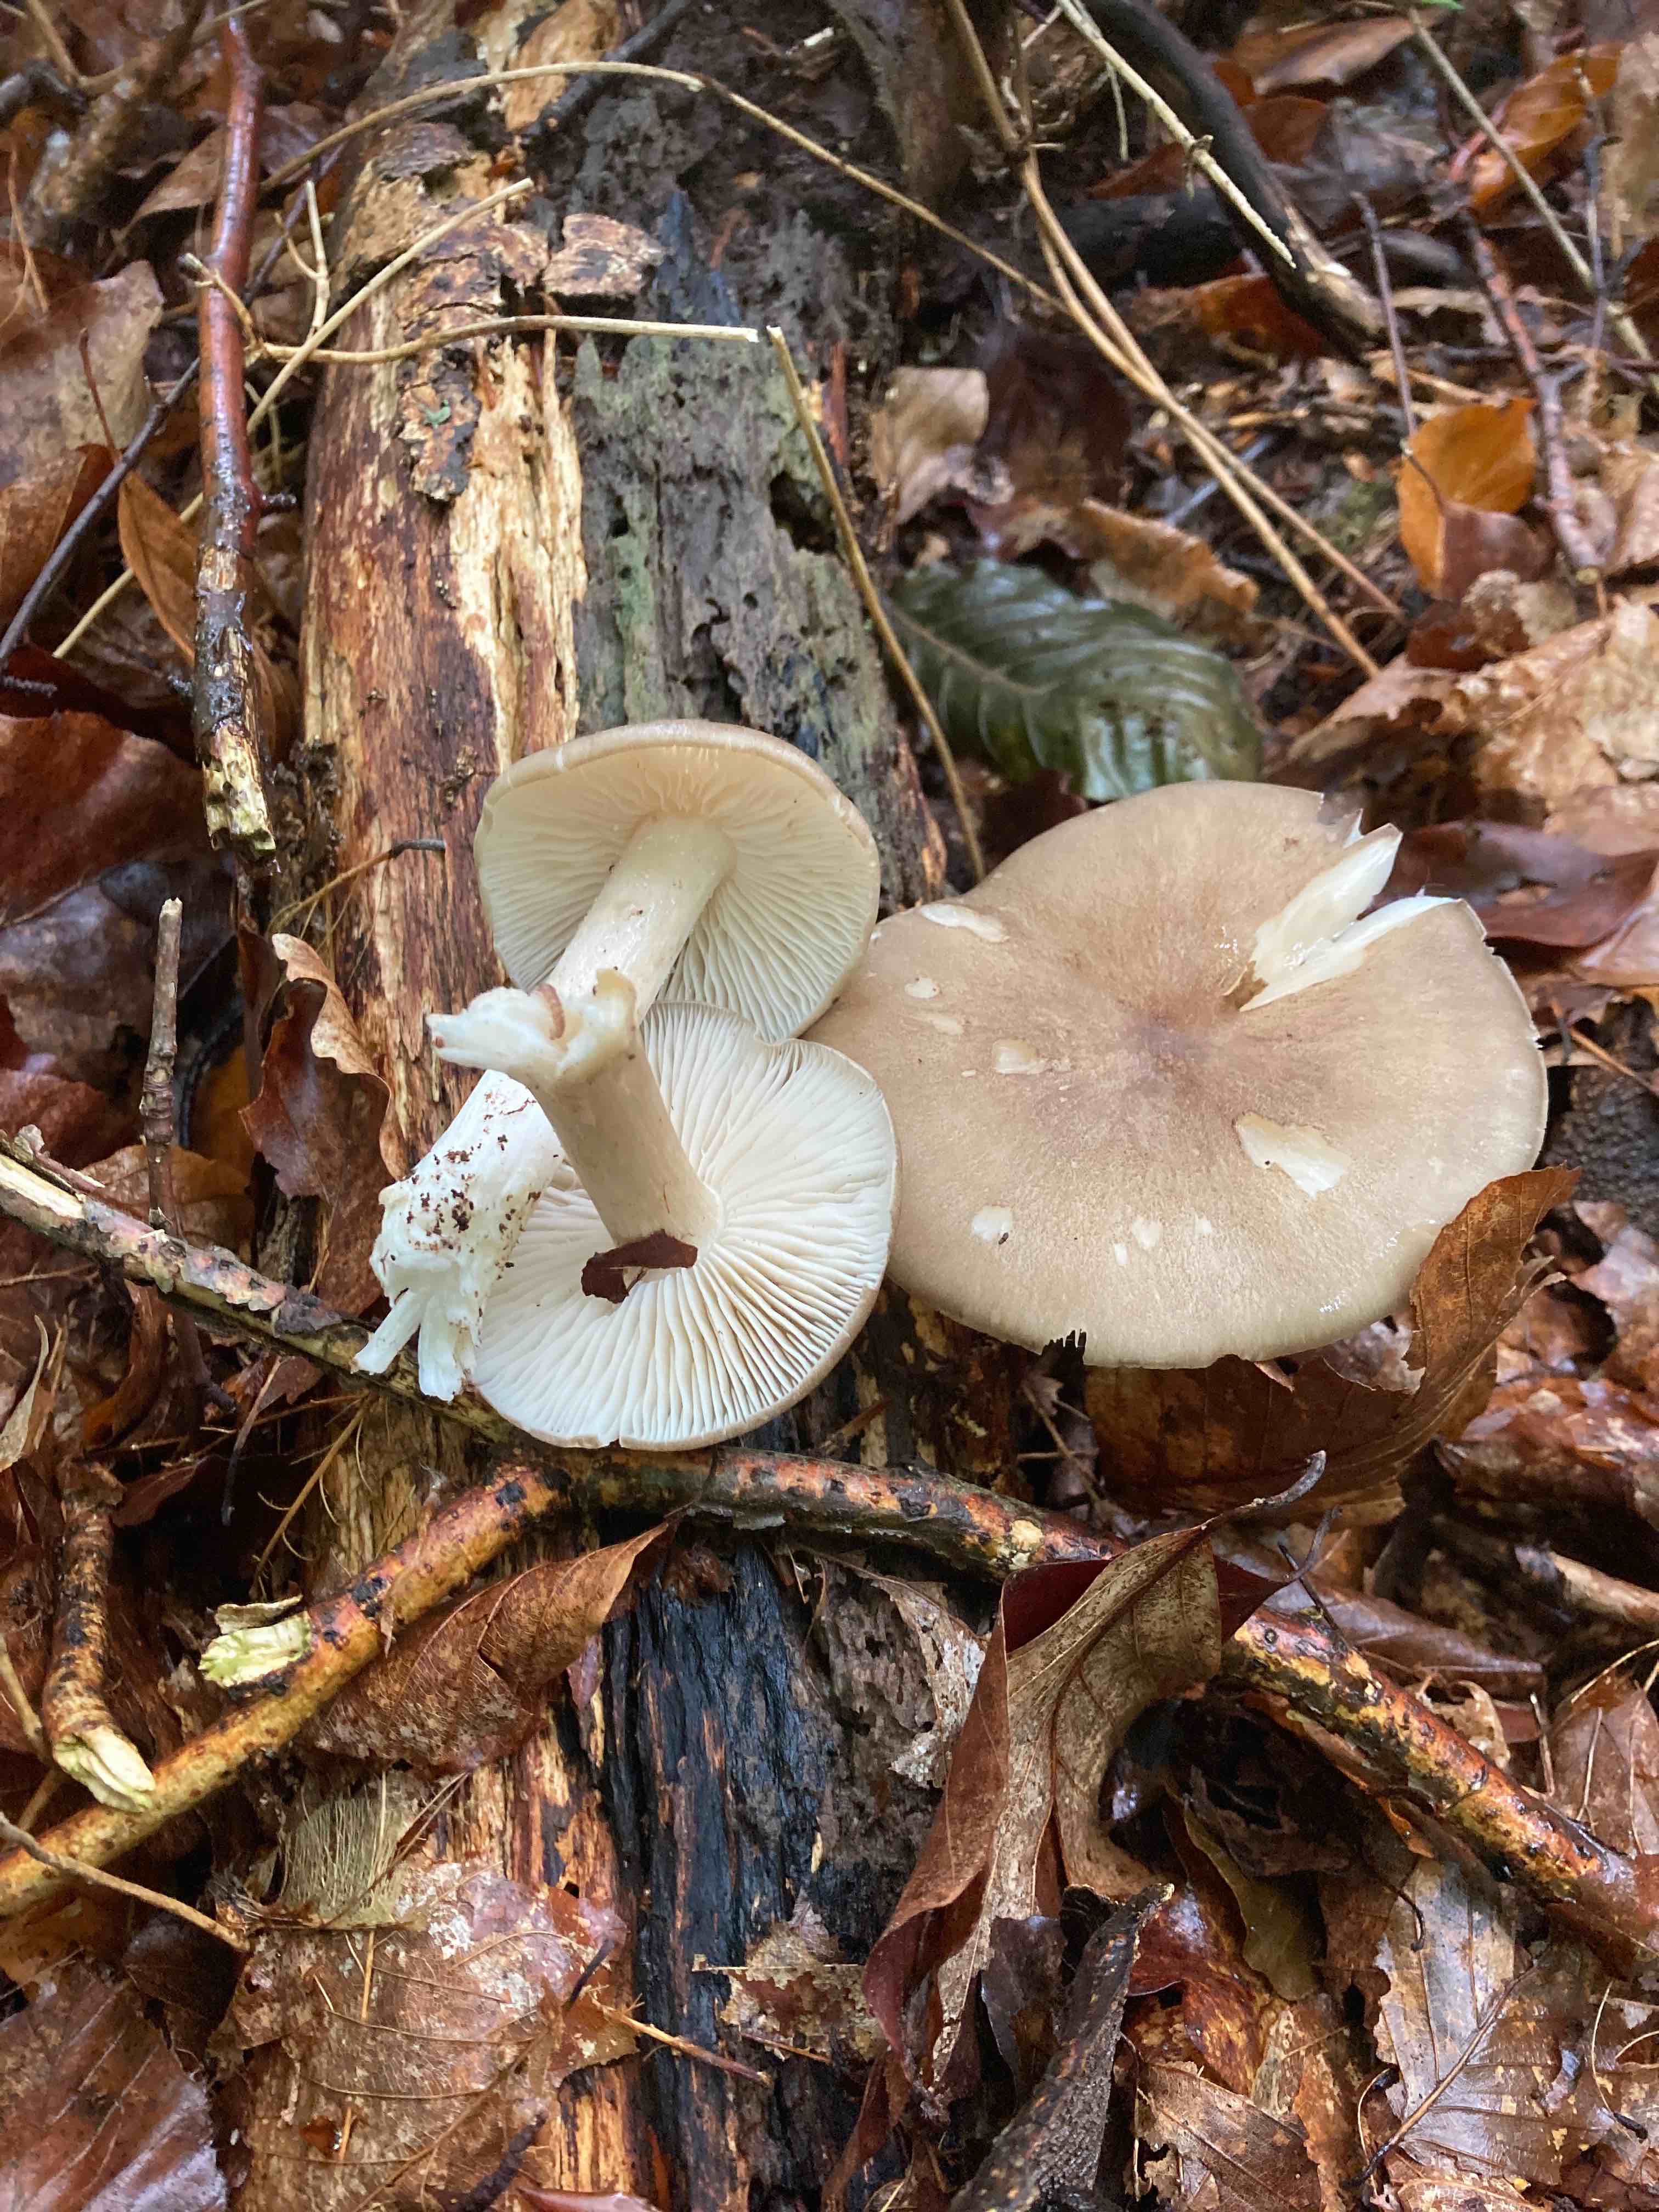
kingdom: Fungi
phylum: Basidiomycota
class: Agaricomycetes
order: Agaricales
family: Tricholomataceae
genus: Megacollybia
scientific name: Megacollybia platyphylla
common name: bredbladet væbnerhat
